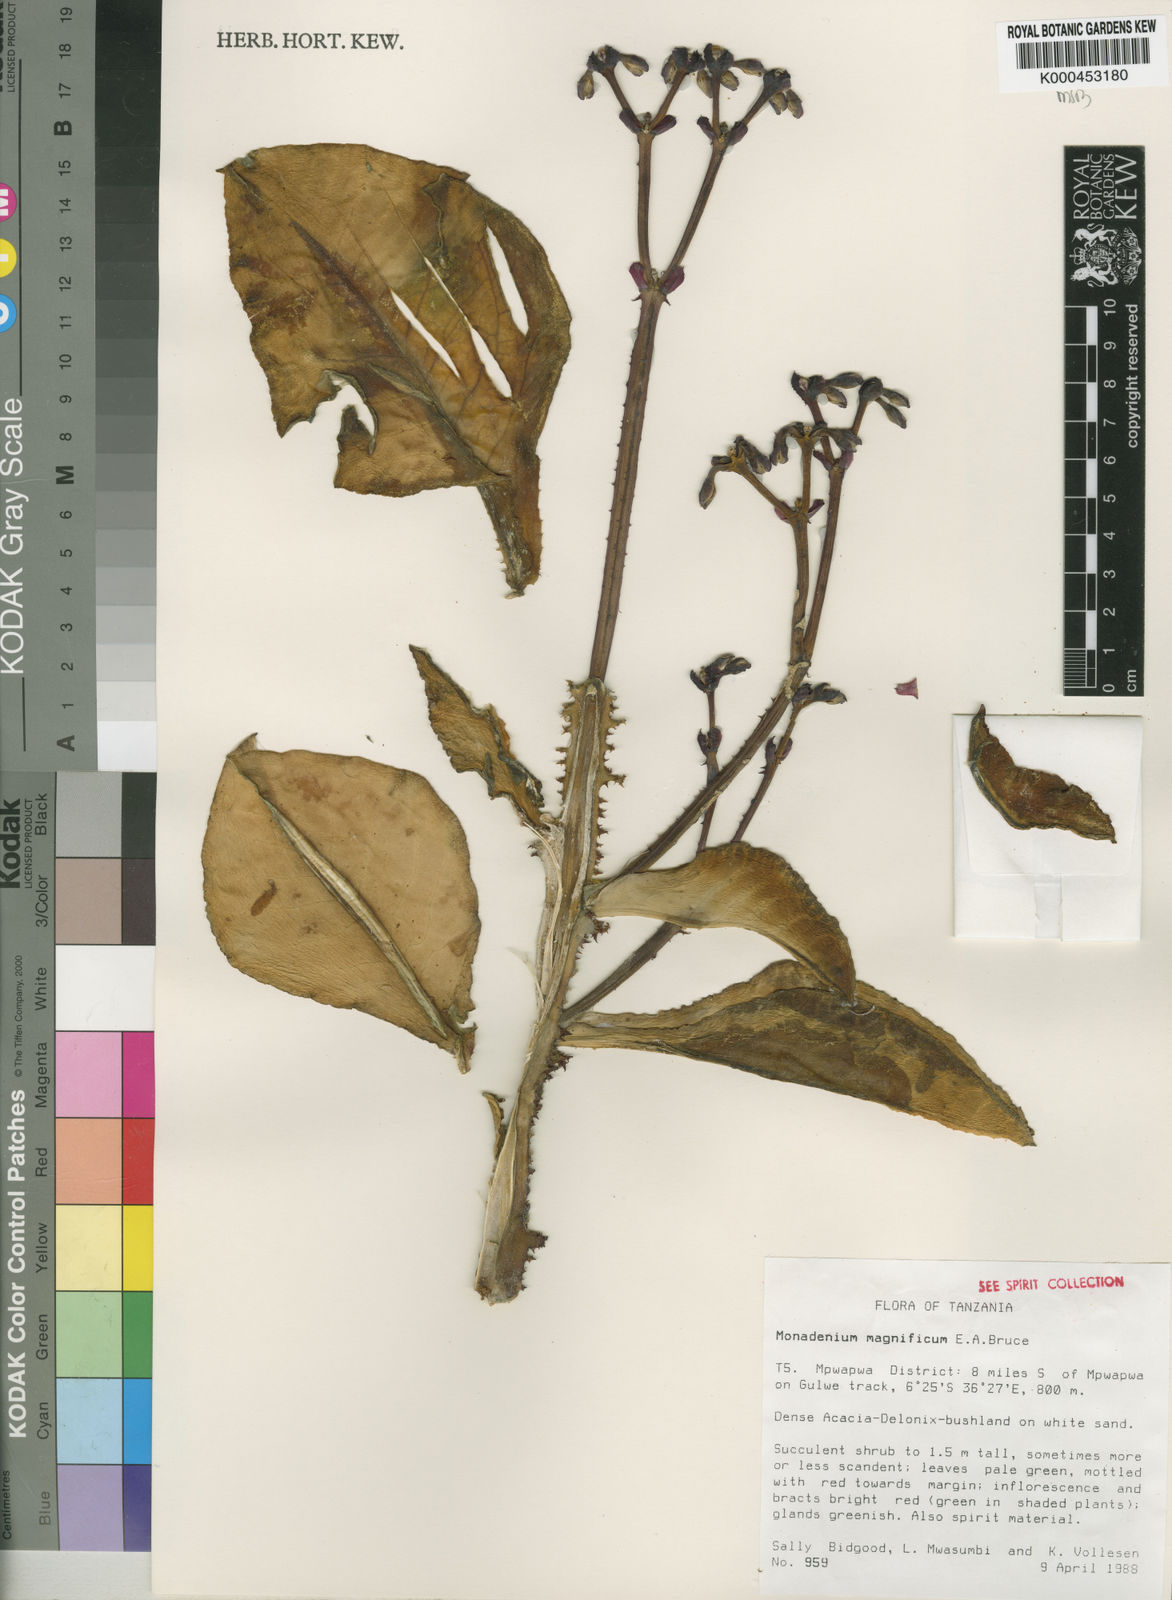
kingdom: Plantae
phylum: Tracheophyta
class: Magnoliopsida
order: Malpighiales
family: Euphorbiaceae
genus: Euphorbia
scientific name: Euphorbia magnifica
